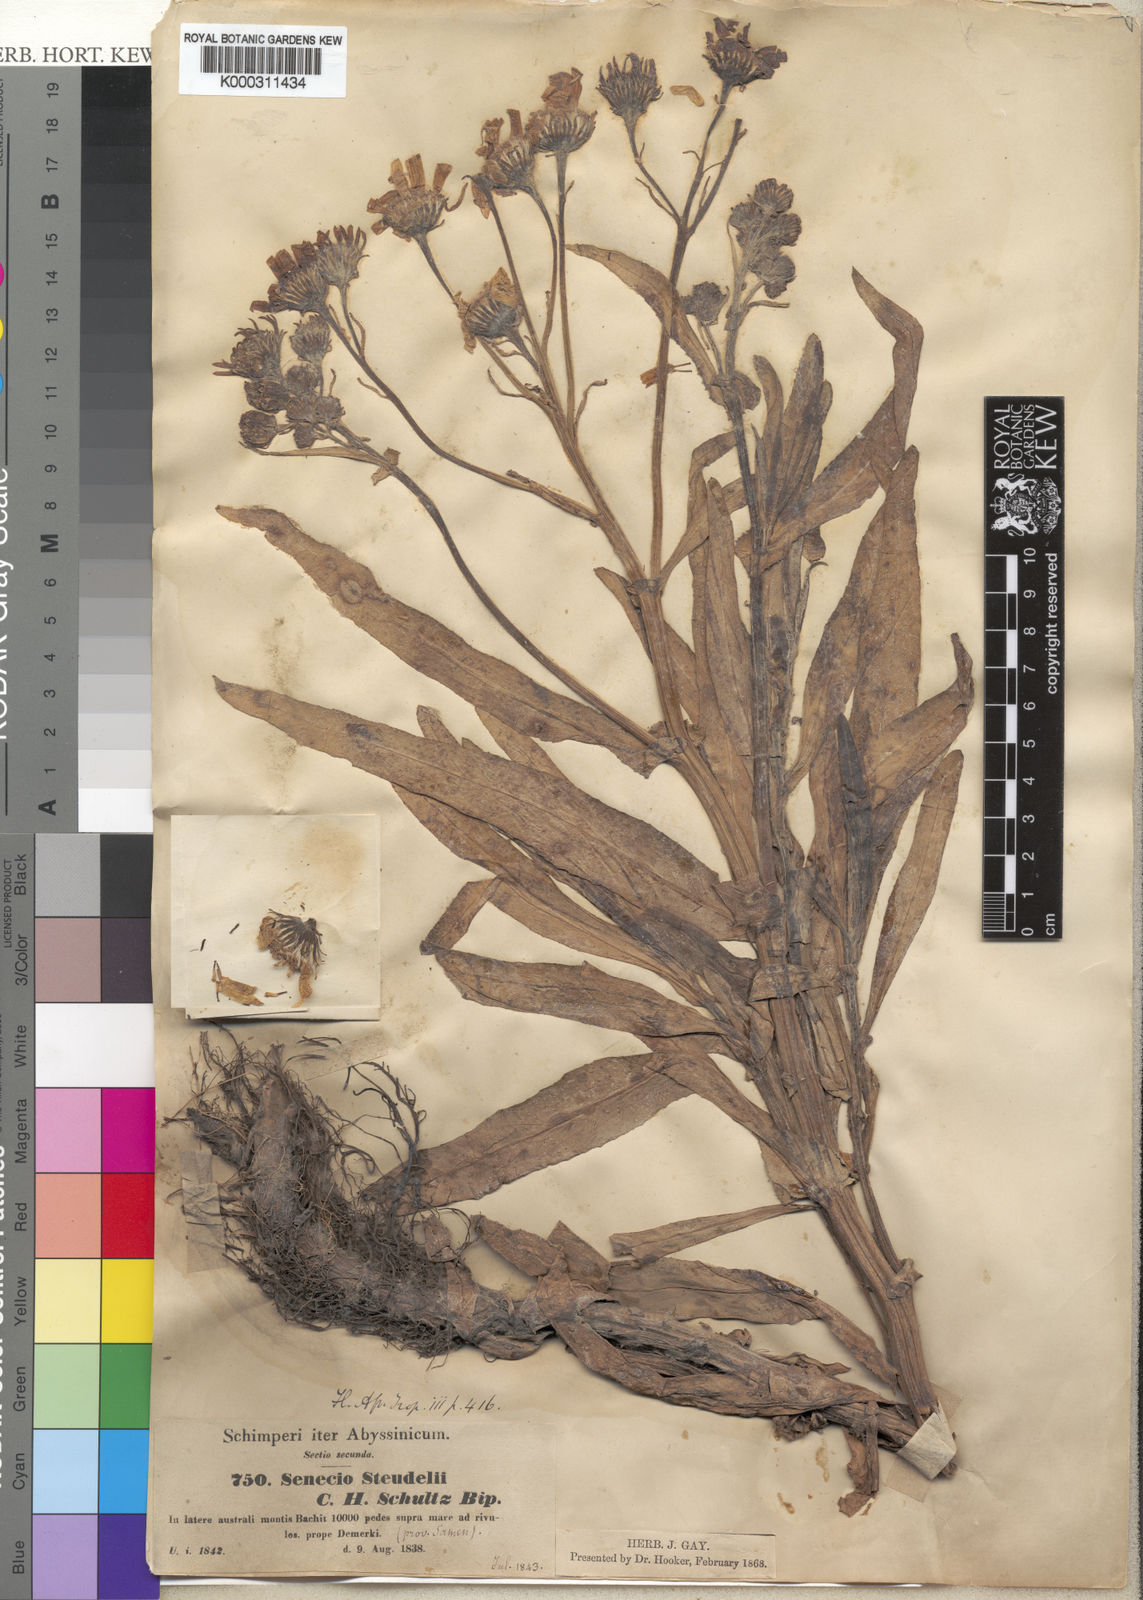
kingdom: Plantae
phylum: Tracheophyta
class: Magnoliopsida
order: Asterales
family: Asteraceae
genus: Senecio
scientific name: Senecio steudelii
